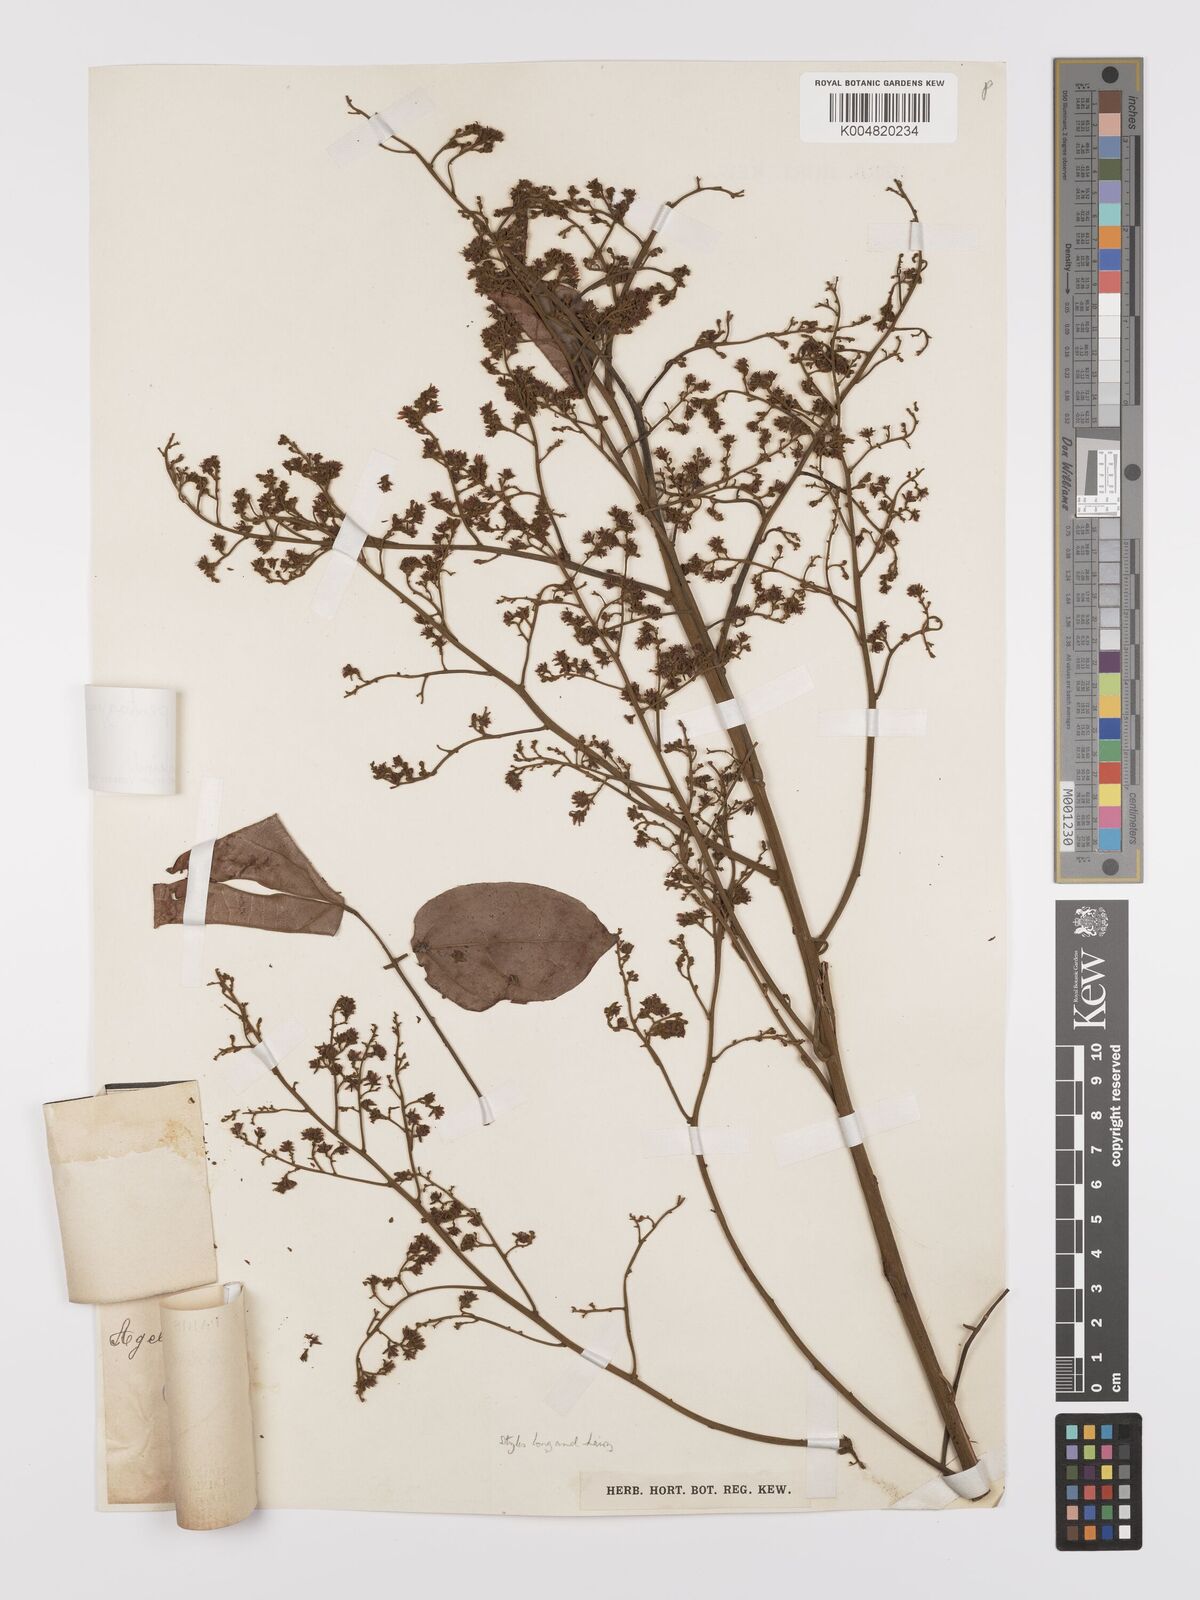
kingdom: Plantae
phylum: Tracheophyta
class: Magnoliopsida
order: Oxalidales
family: Connaraceae
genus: Agelaea
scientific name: Agelaea pentagyna
